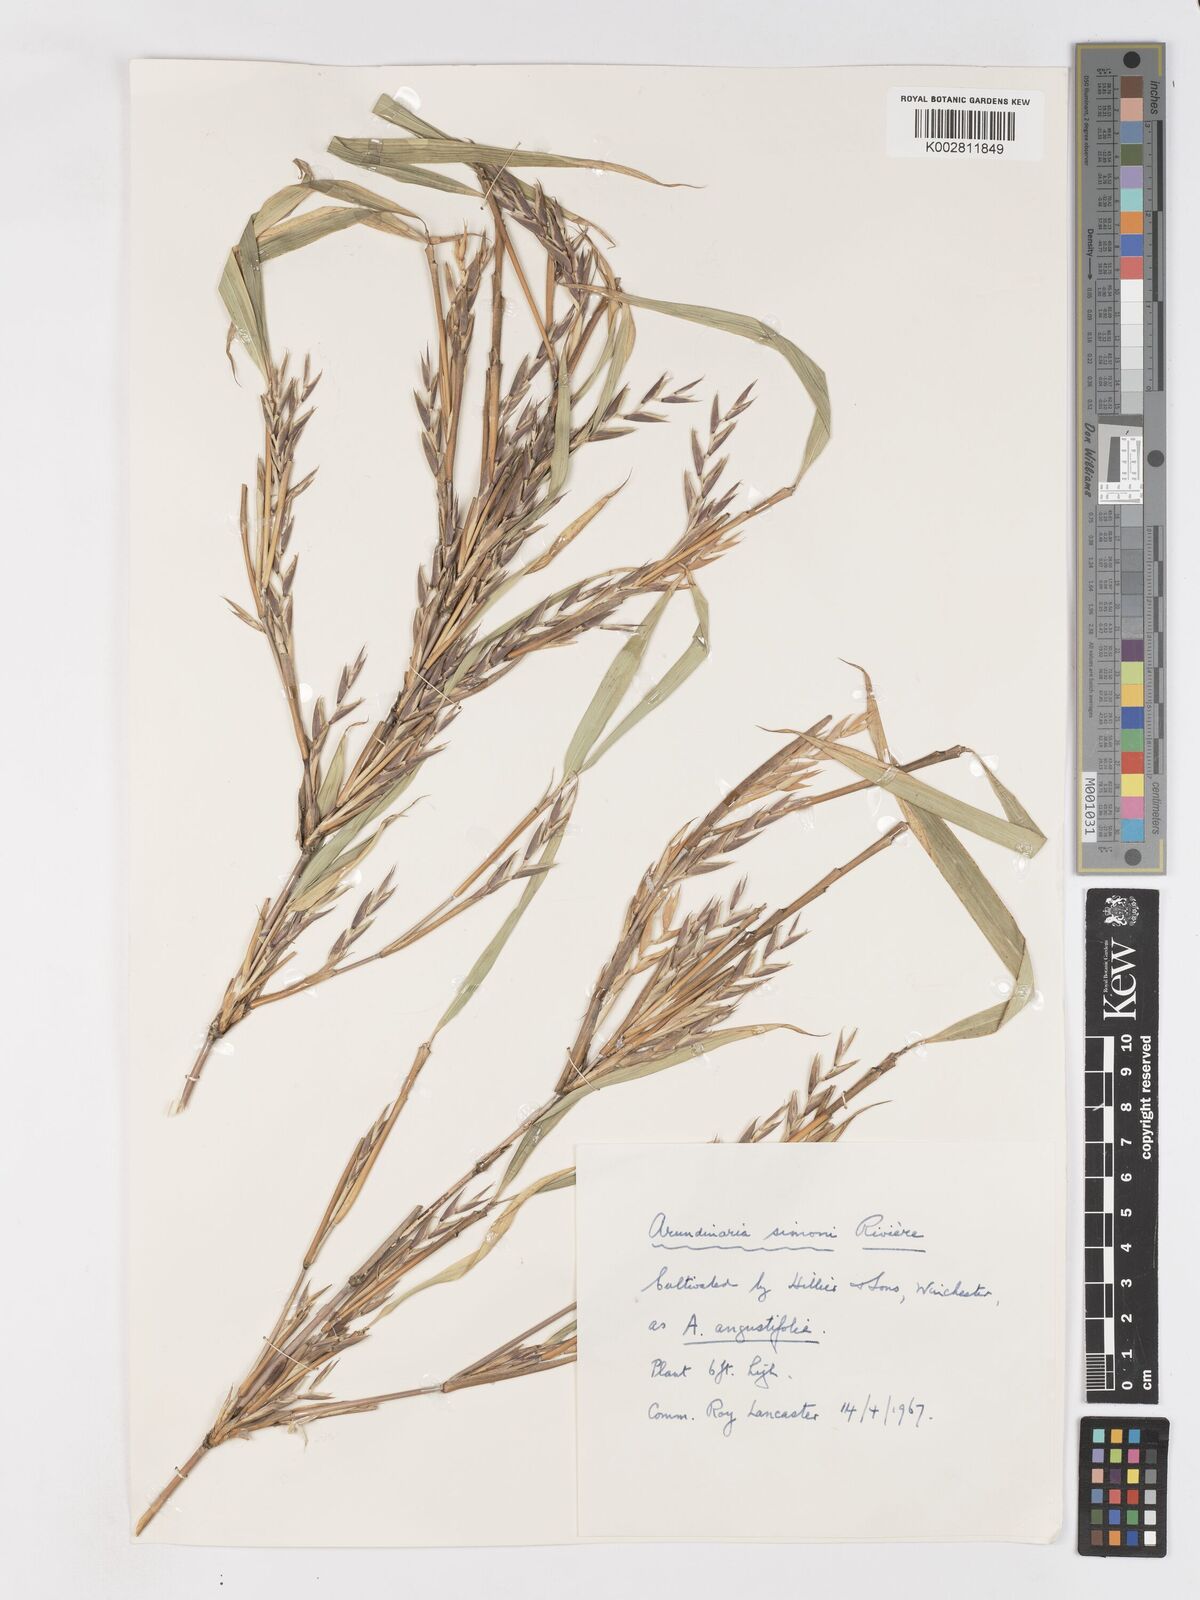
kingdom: Plantae
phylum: Tracheophyta
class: Liliopsida
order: Poales
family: Poaceae
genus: Pleioblastus
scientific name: Pleioblastus simonii
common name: Simon bamboo
